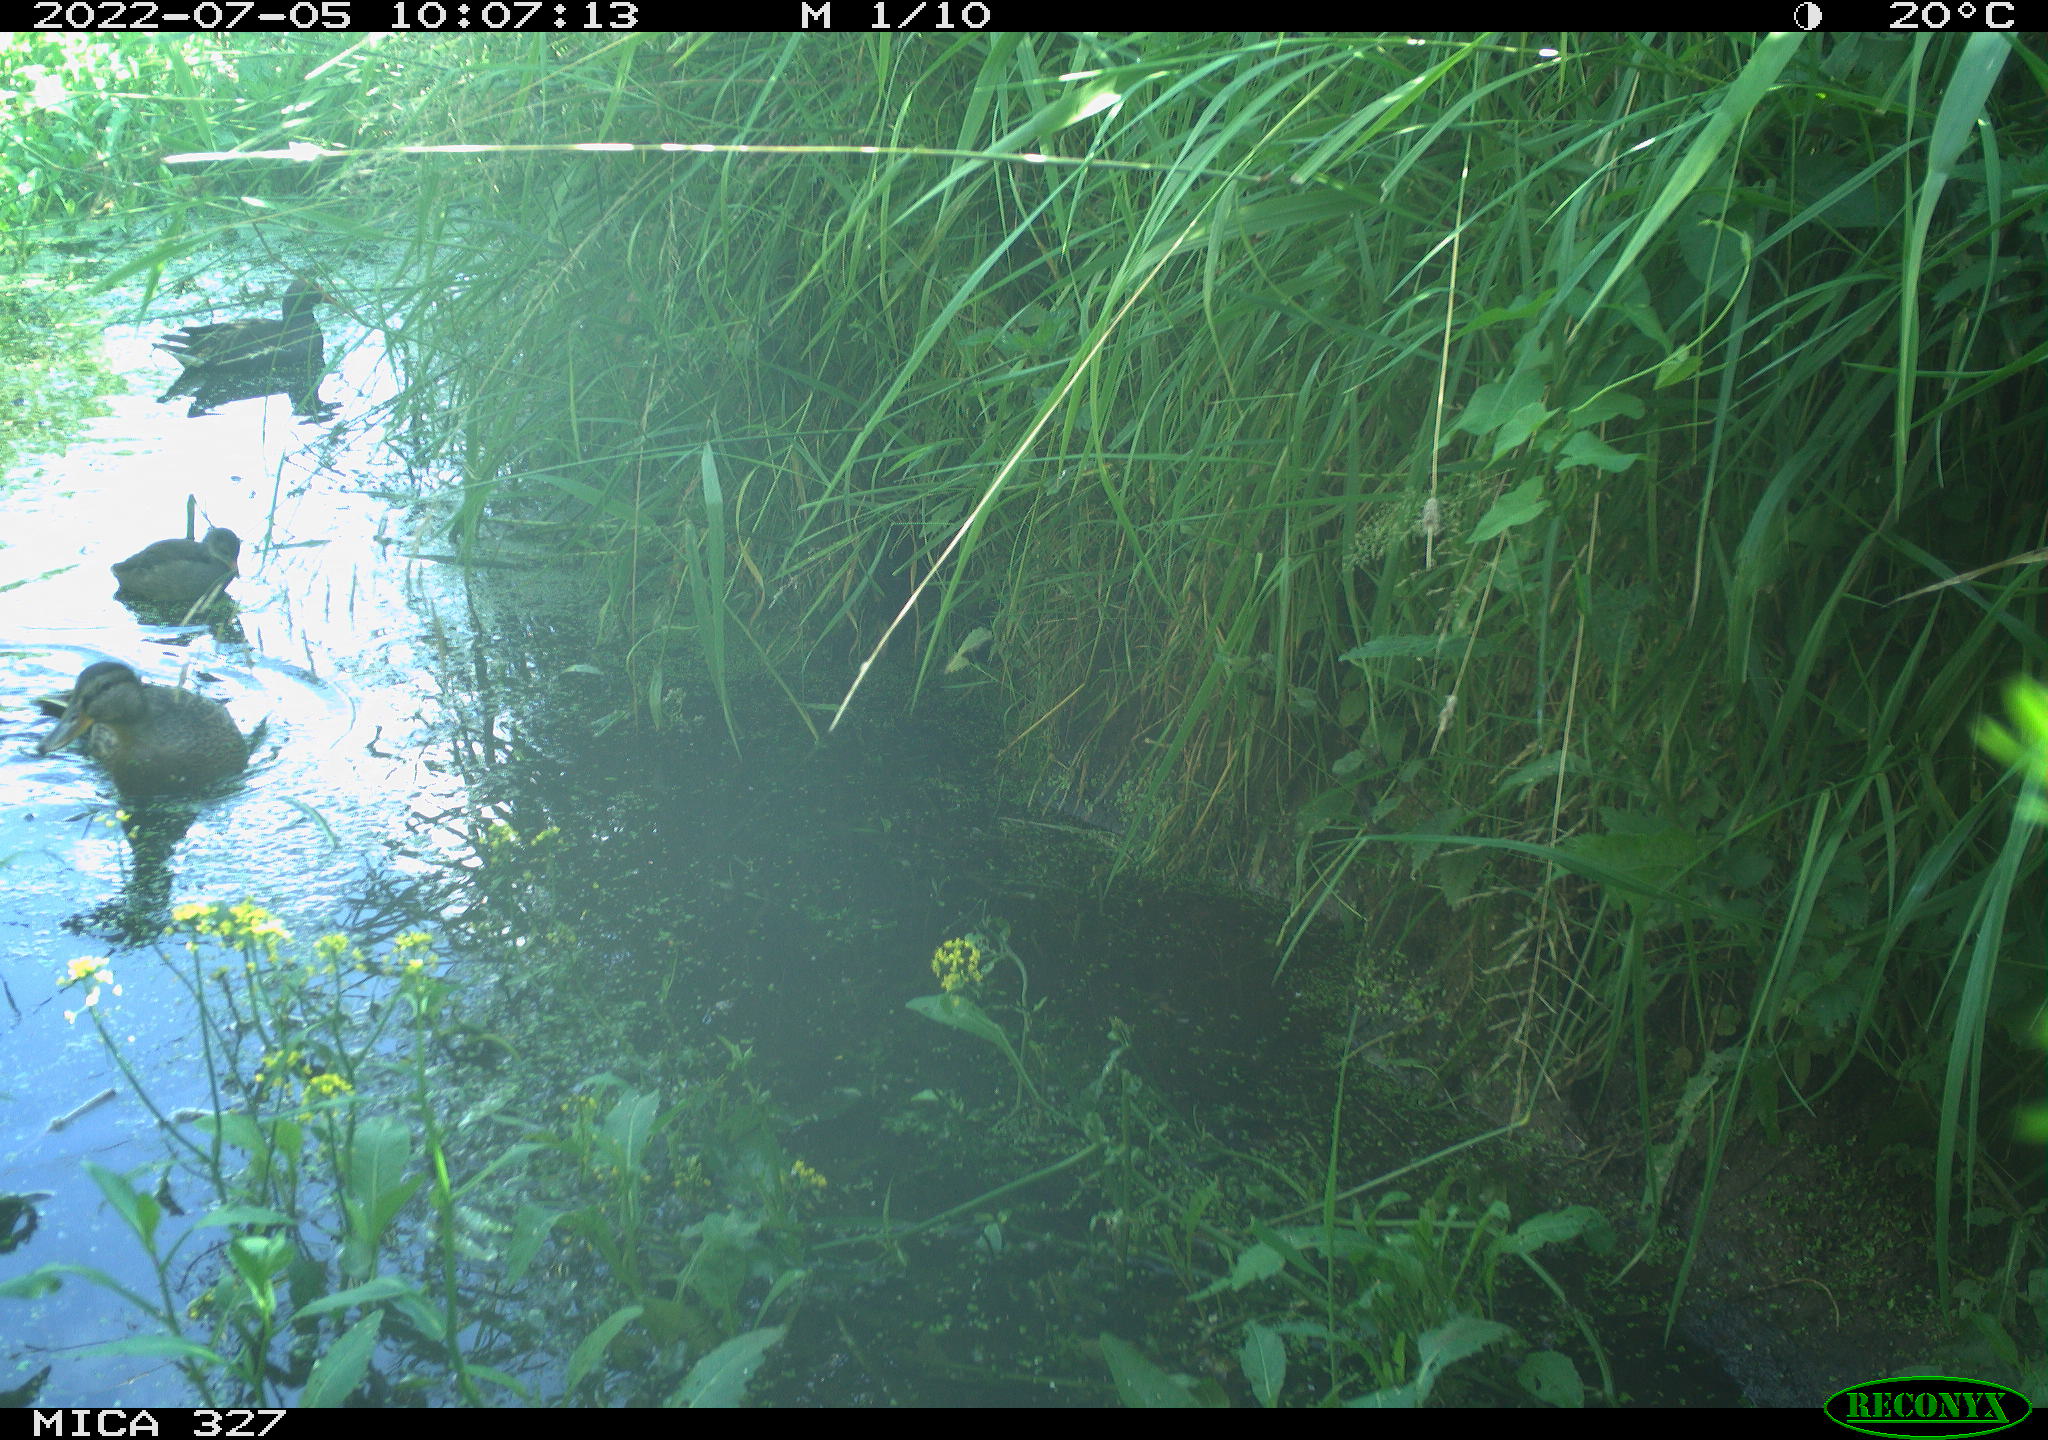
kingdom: Animalia
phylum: Chordata
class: Aves
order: Anseriformes
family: Anatidae
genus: Anas
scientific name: Anas platyrhynchos
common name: Mallard
